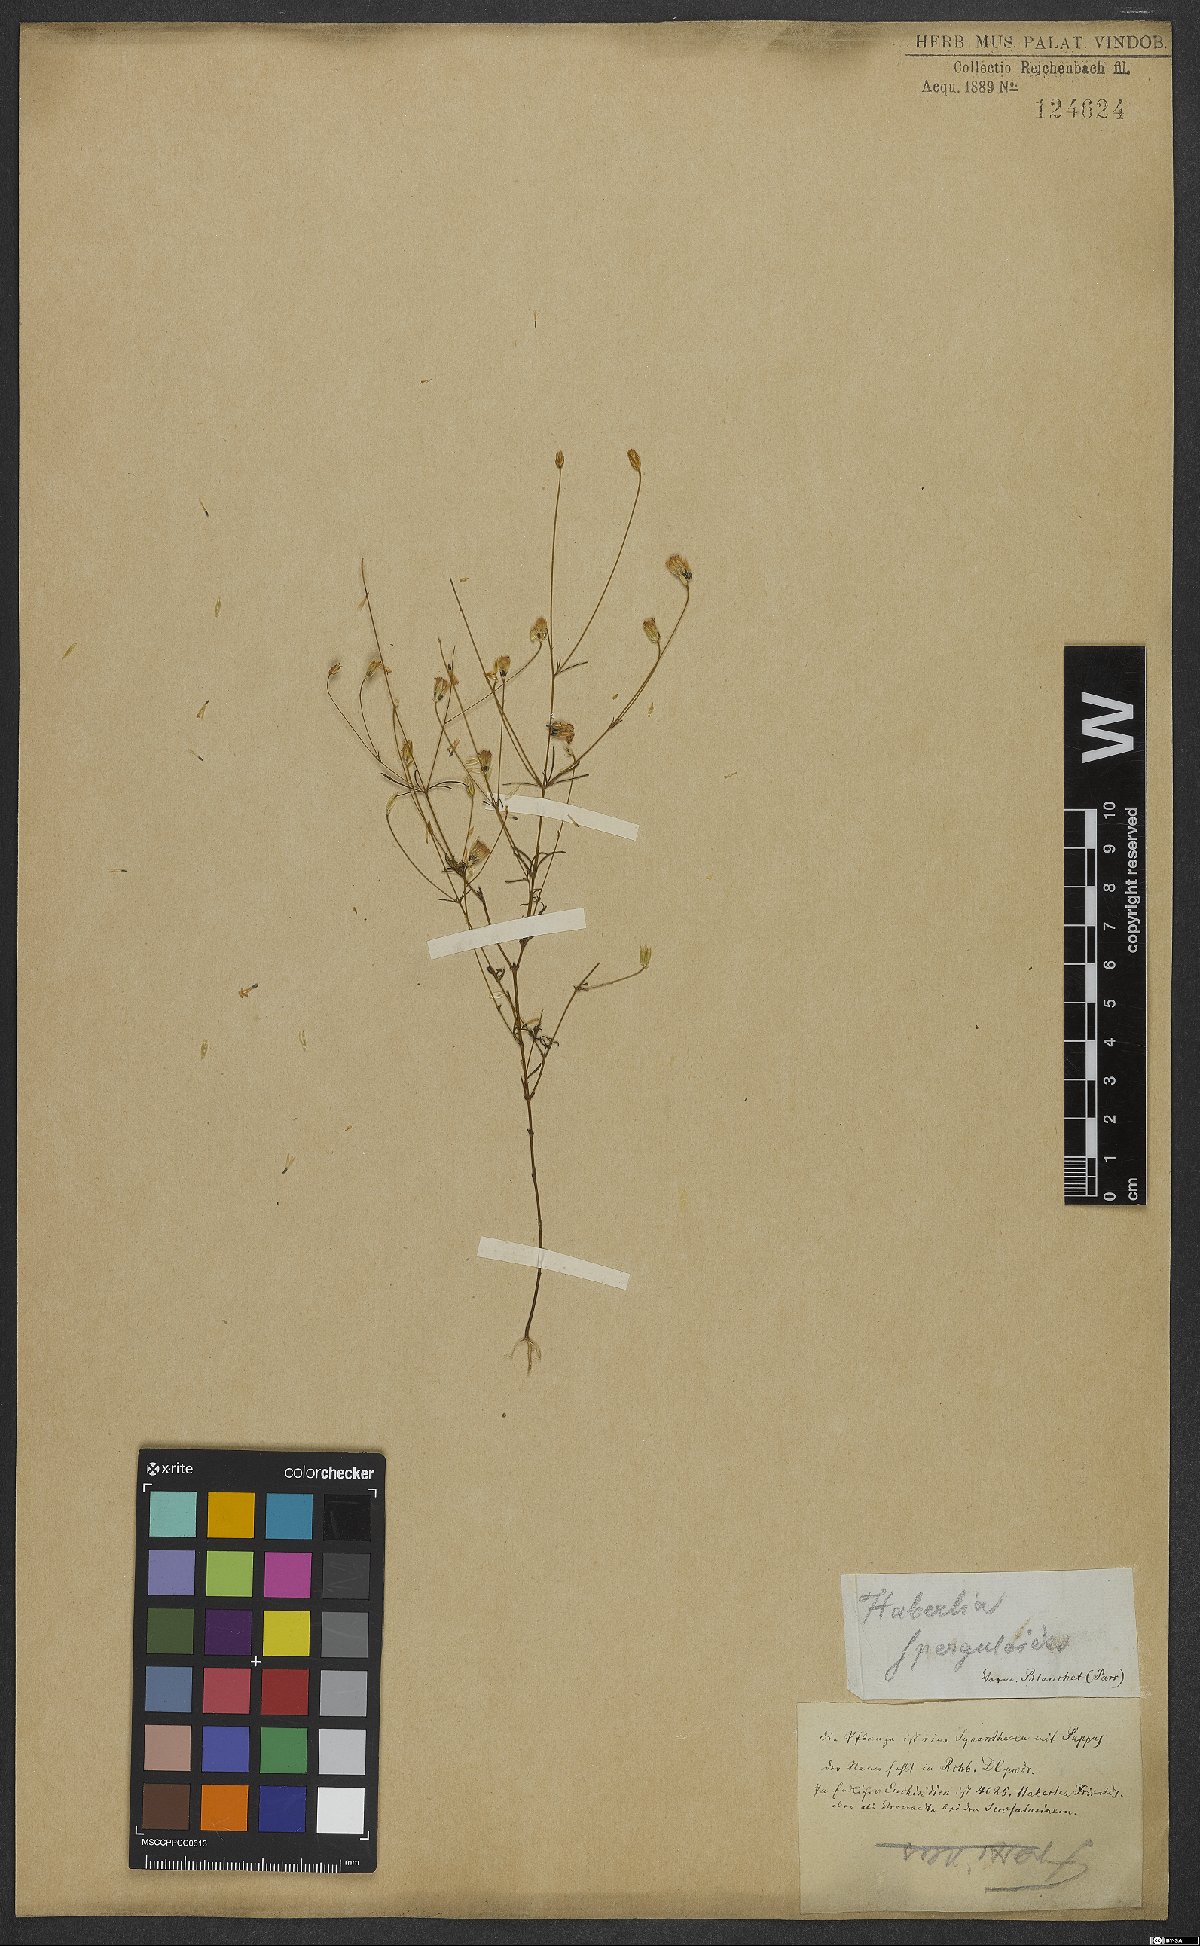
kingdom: Plantae
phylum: Tracheophyta
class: Magnoliopsida
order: Asterales
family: Asteraceae
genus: Praxelis
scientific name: Praxelis capillaris
